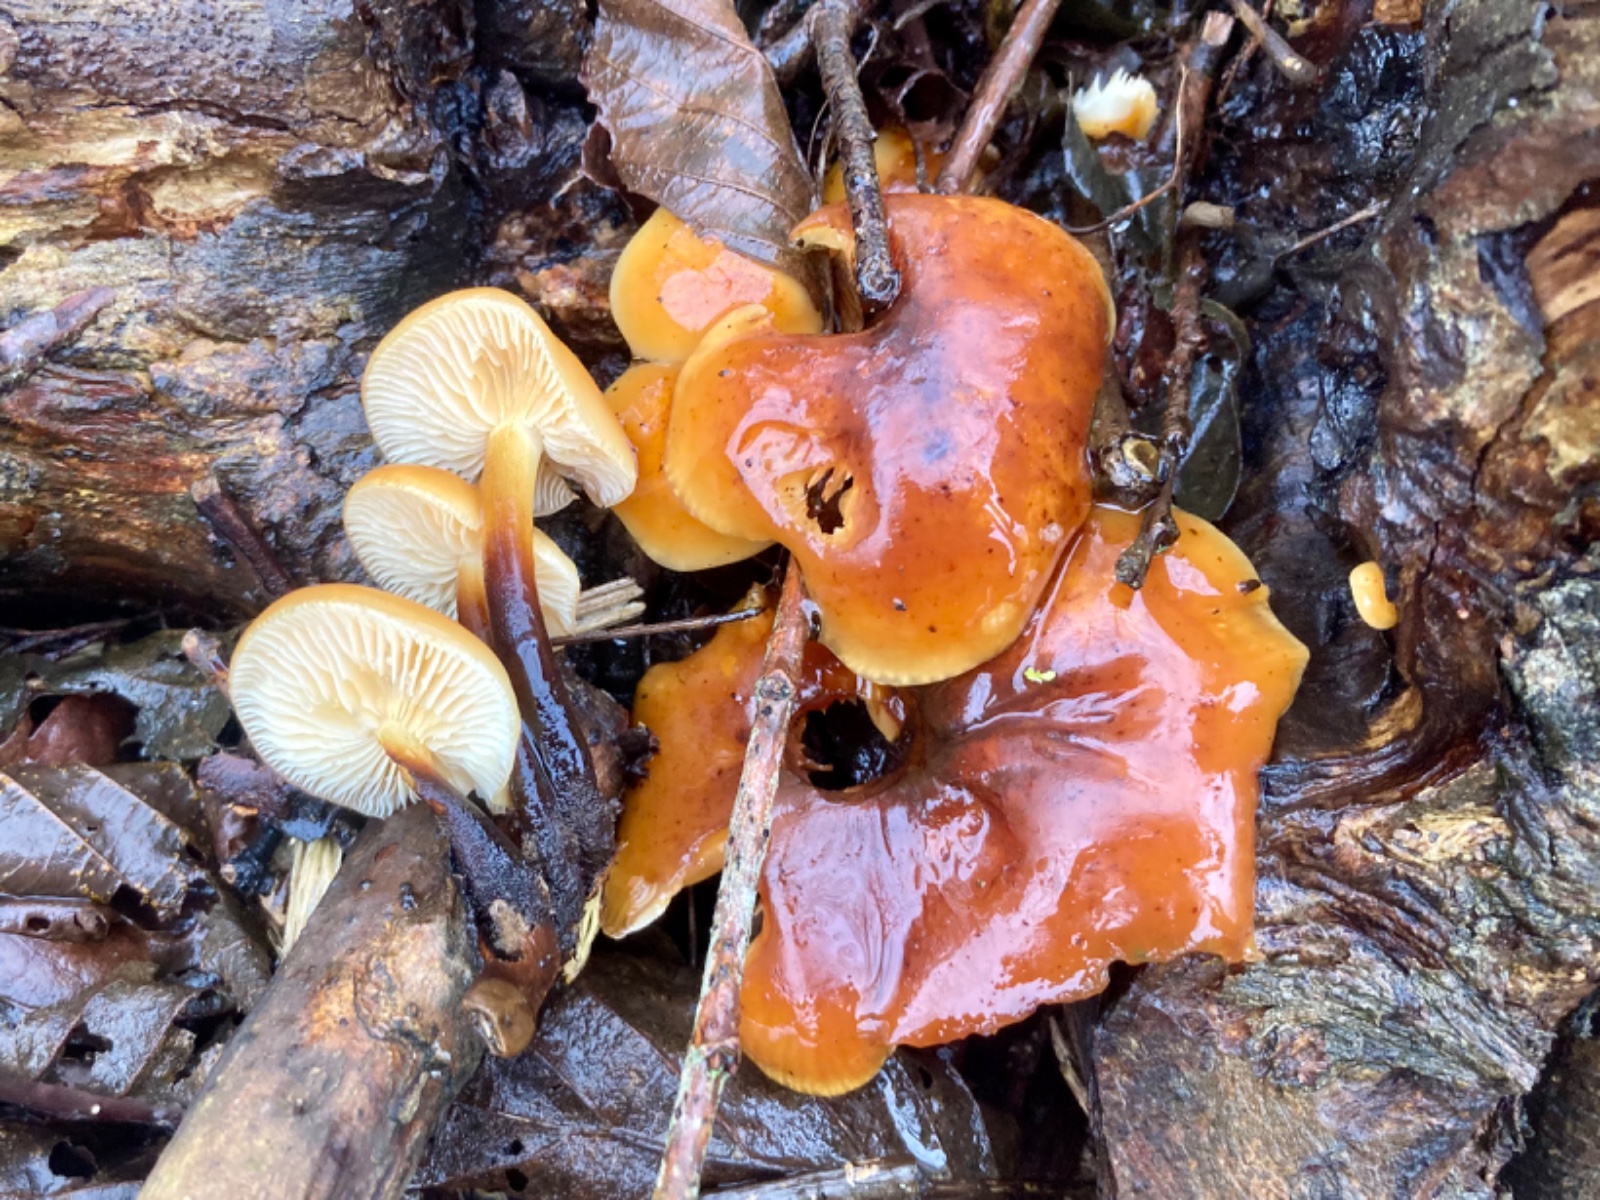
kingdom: Fungi
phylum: Basidiomycota
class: Agaricomycetes
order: Agaricales
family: Physalacriaceae
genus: Flammulina
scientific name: Flammulina
